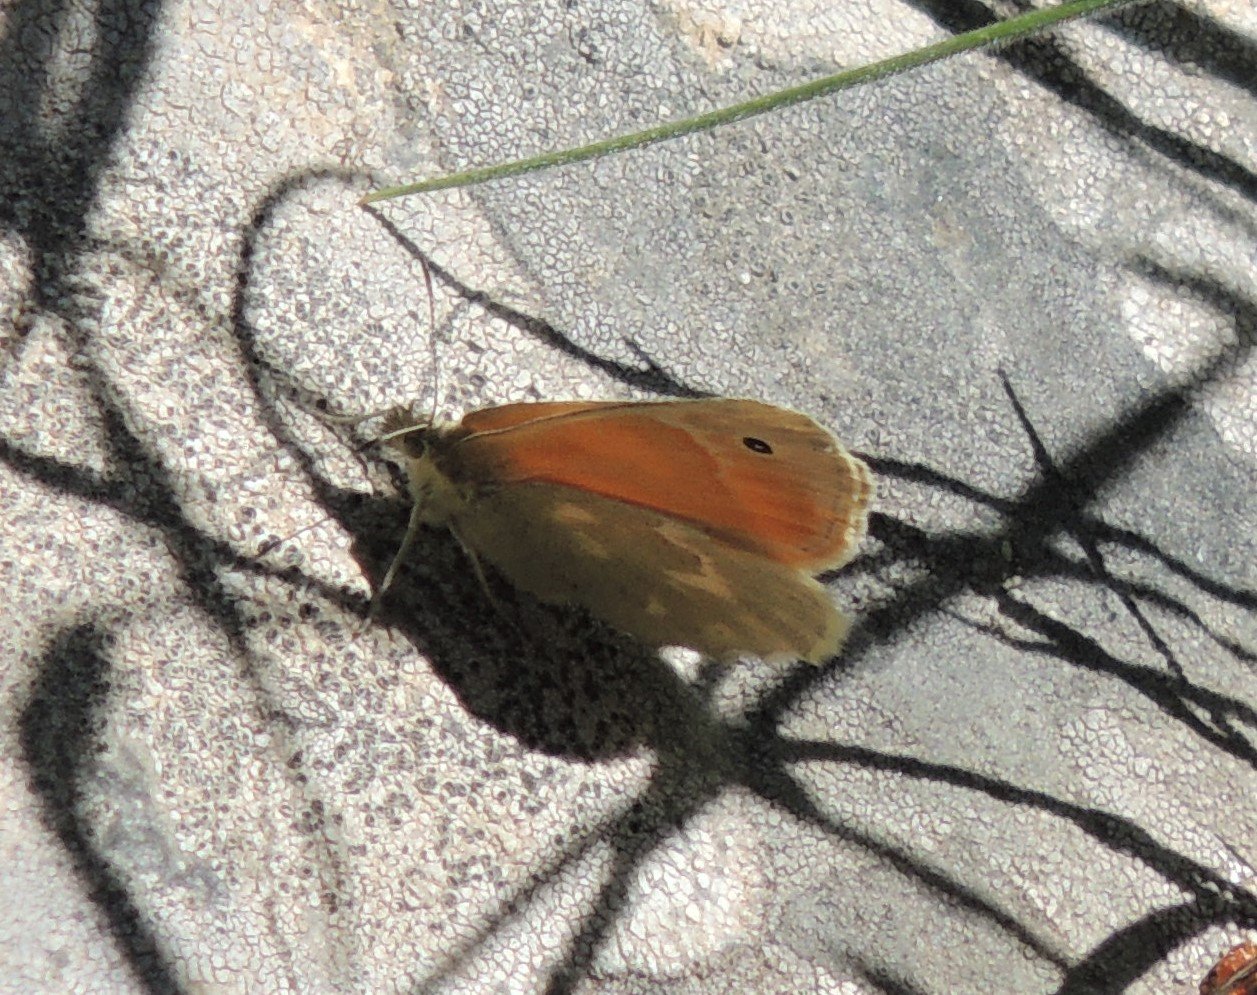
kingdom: Animalia
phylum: Arthropoda
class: Insecta
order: Lepidoptera
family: Nymphalidae
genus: Coenonympha
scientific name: Coenonympha tullia
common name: Large Heath
